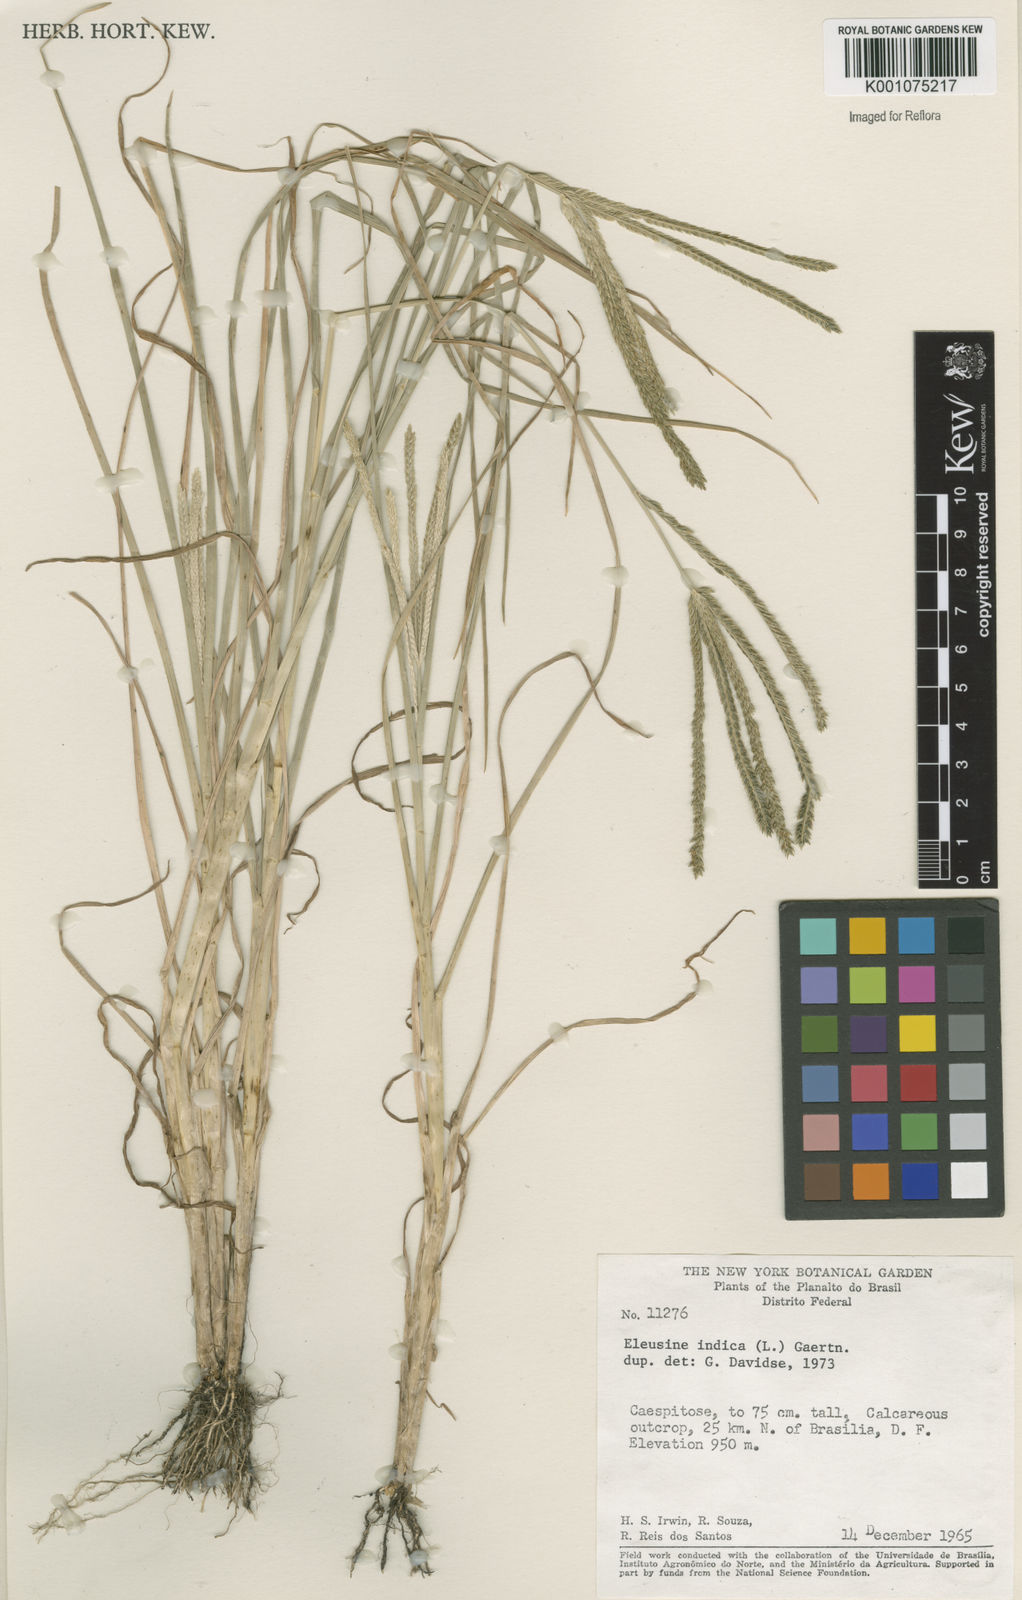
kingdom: Plantae
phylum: Tracheophyta
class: Liliopsida
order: Poales
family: Poaceae
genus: Eleusine
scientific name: Eleusine indica
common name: Yard-grass
